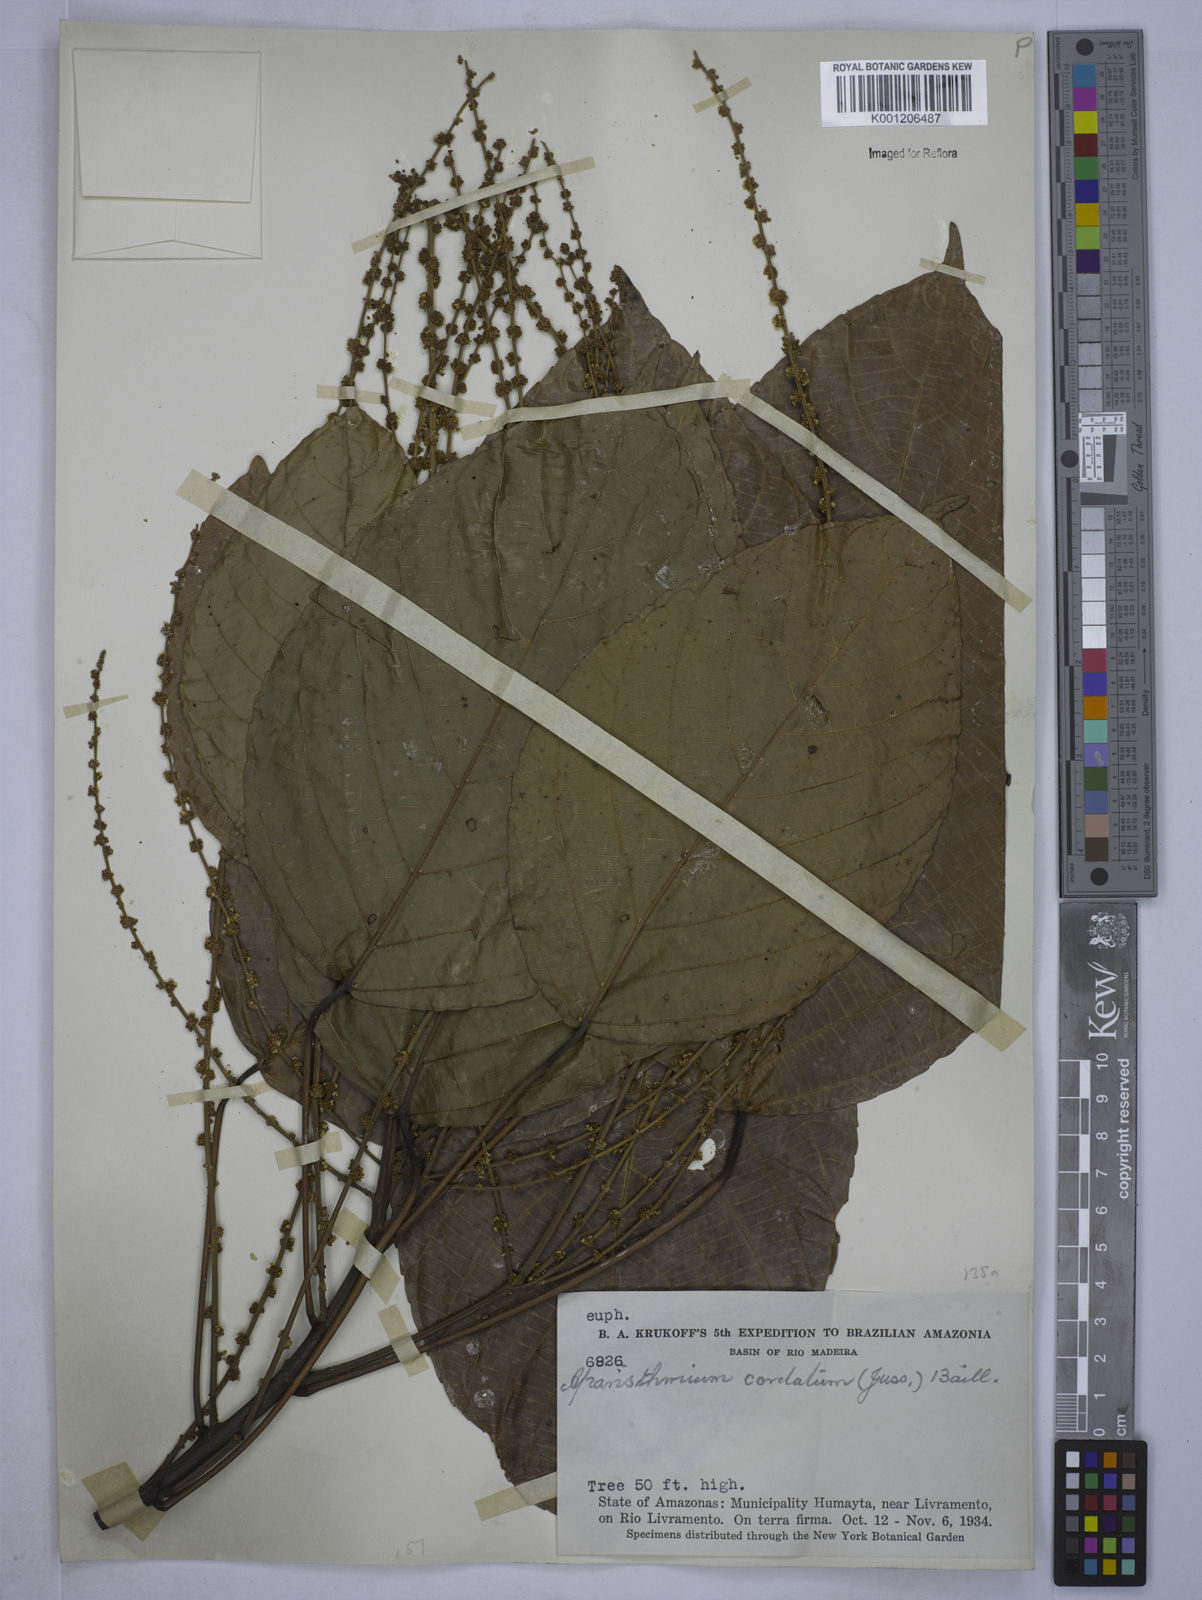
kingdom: Plantae
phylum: Tracheophyta
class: Magnoliopsida
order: Malpighiales
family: Euphorbiaceae
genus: Aparisthmium
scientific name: Aparisthmium cordatum
